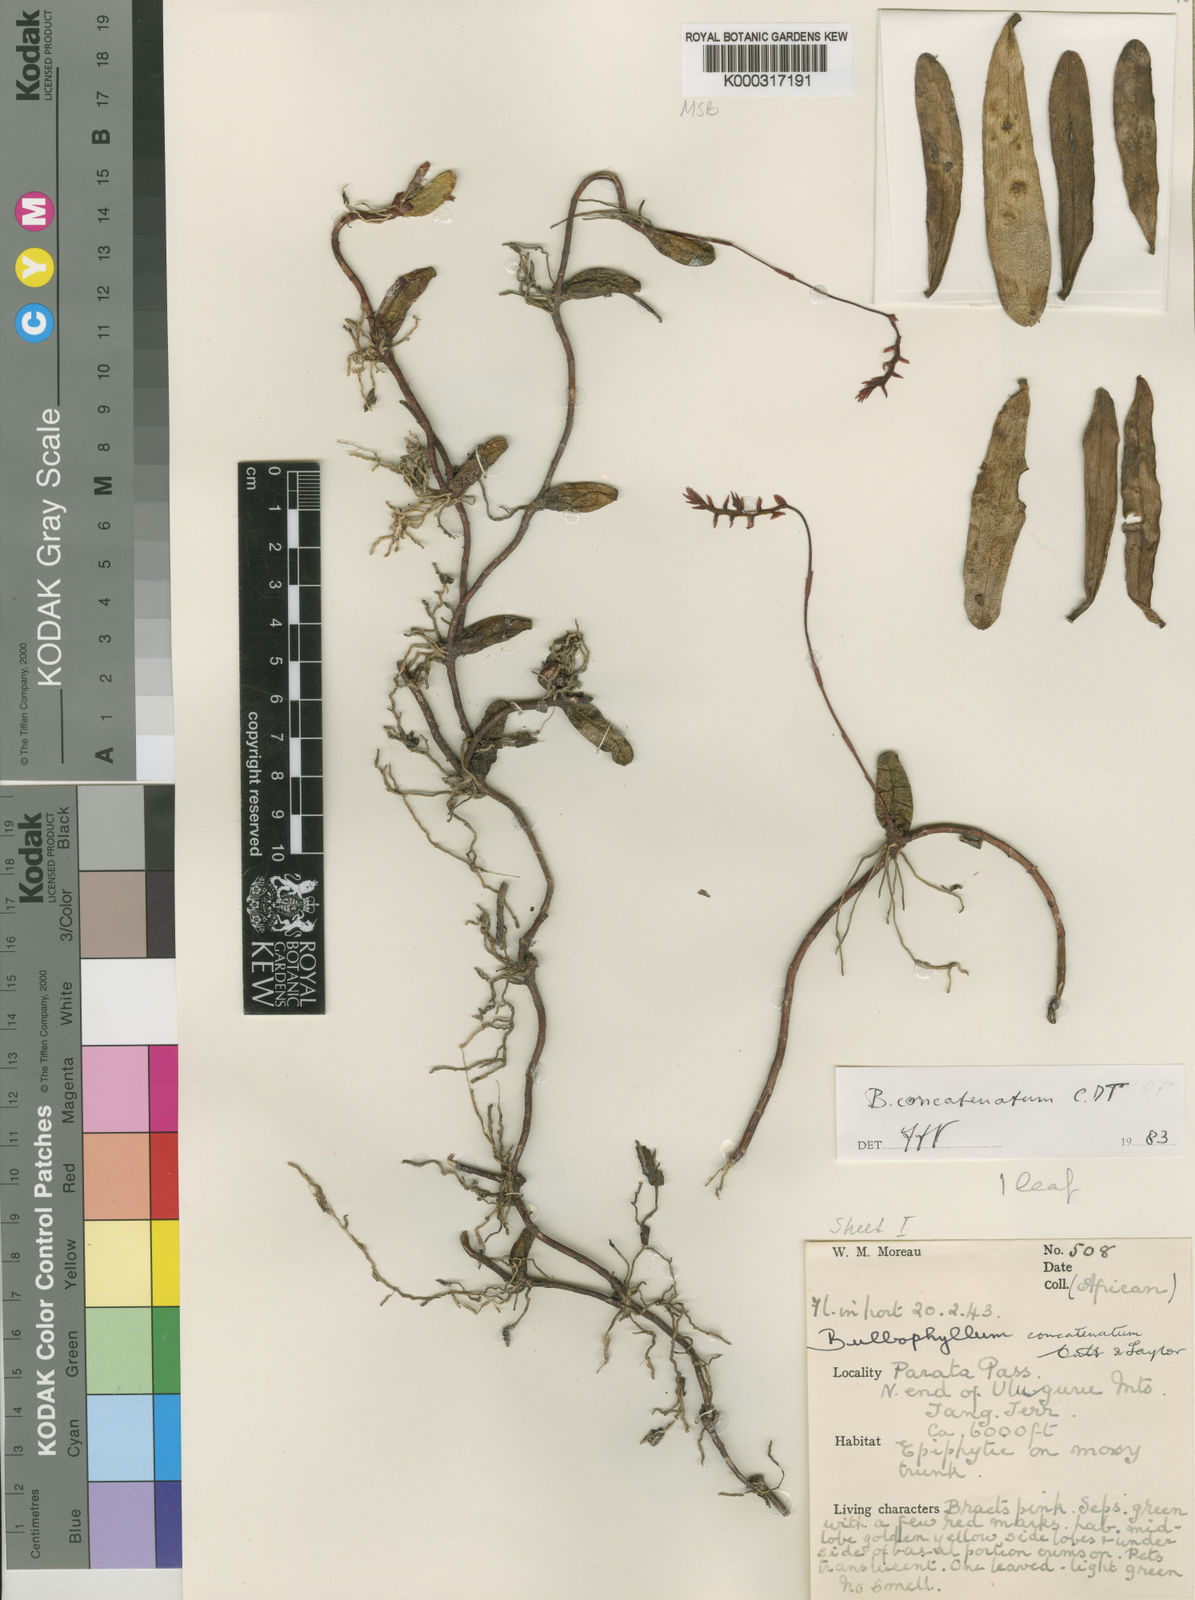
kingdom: Plantae
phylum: Tracheophyta
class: Liliopsida
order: Asparagales
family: Orchidaceae
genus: Bulbophyllum
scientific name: Bulbophyllum concatenatum
